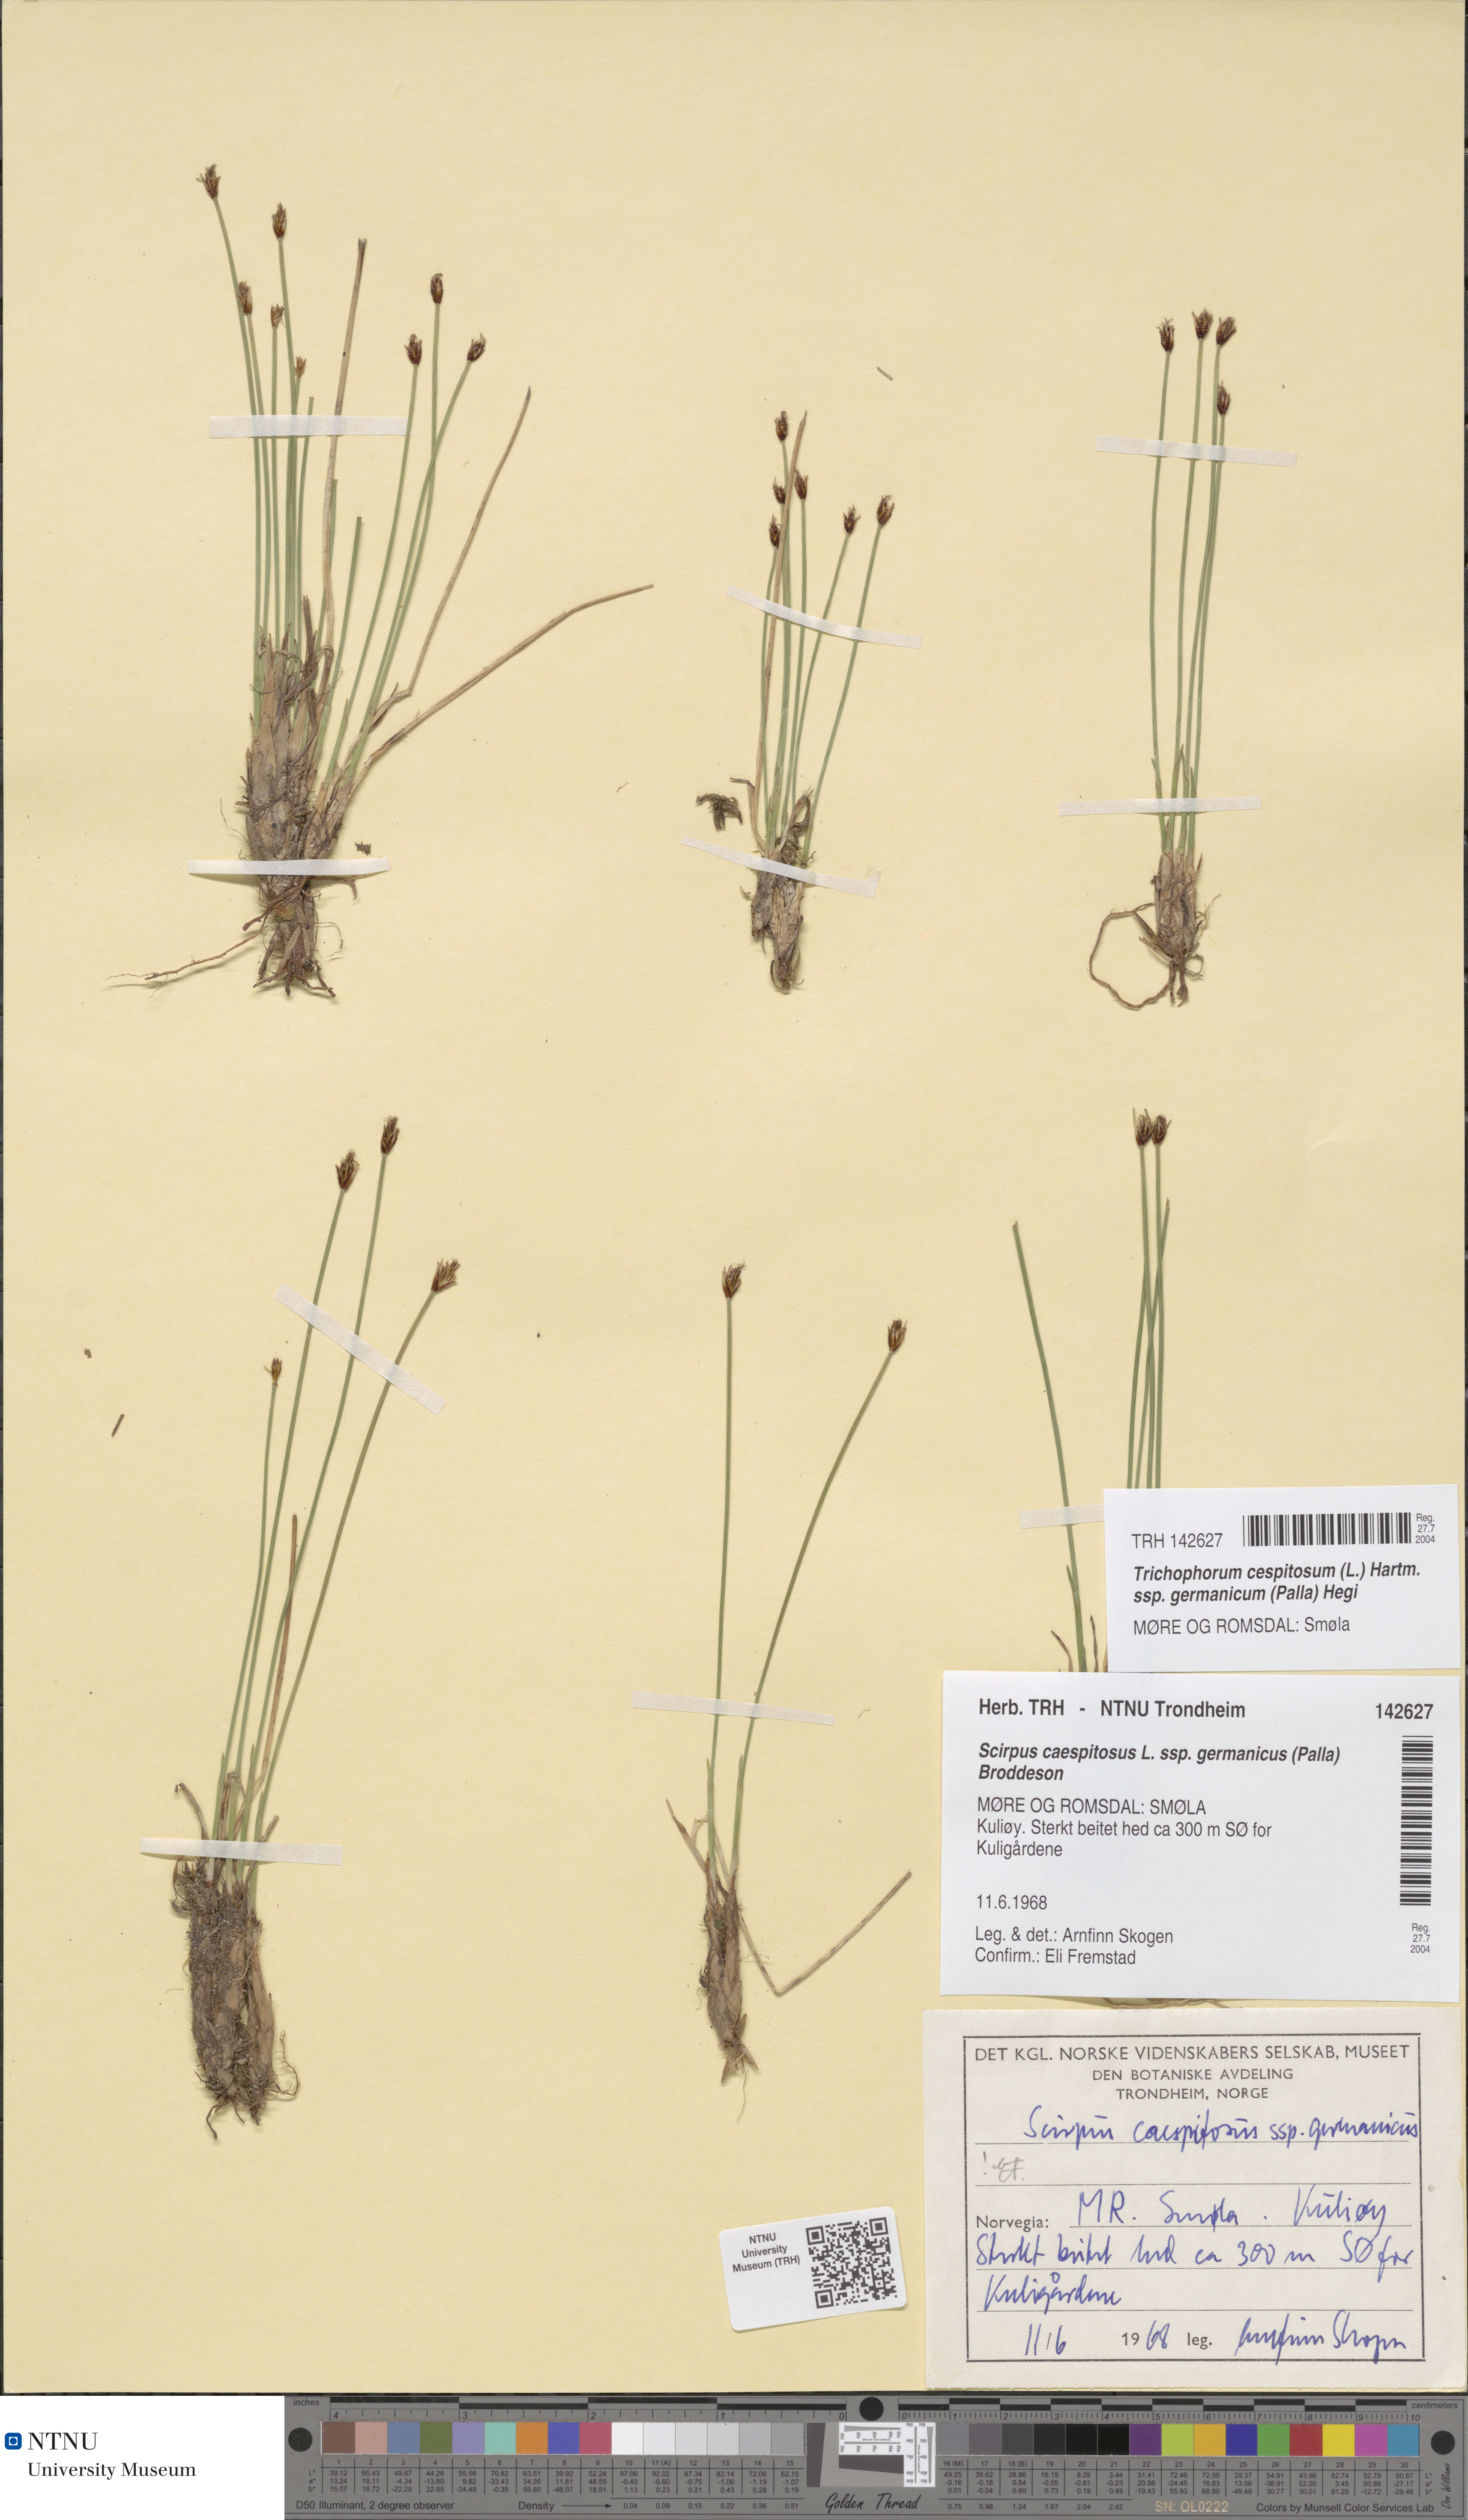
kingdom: Plantae
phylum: Tracheophyta
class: Liliopsida
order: Poales
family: Cyperaceae
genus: Trichophorum
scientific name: Trichophorum cespitosum
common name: Cespitose bulrush
